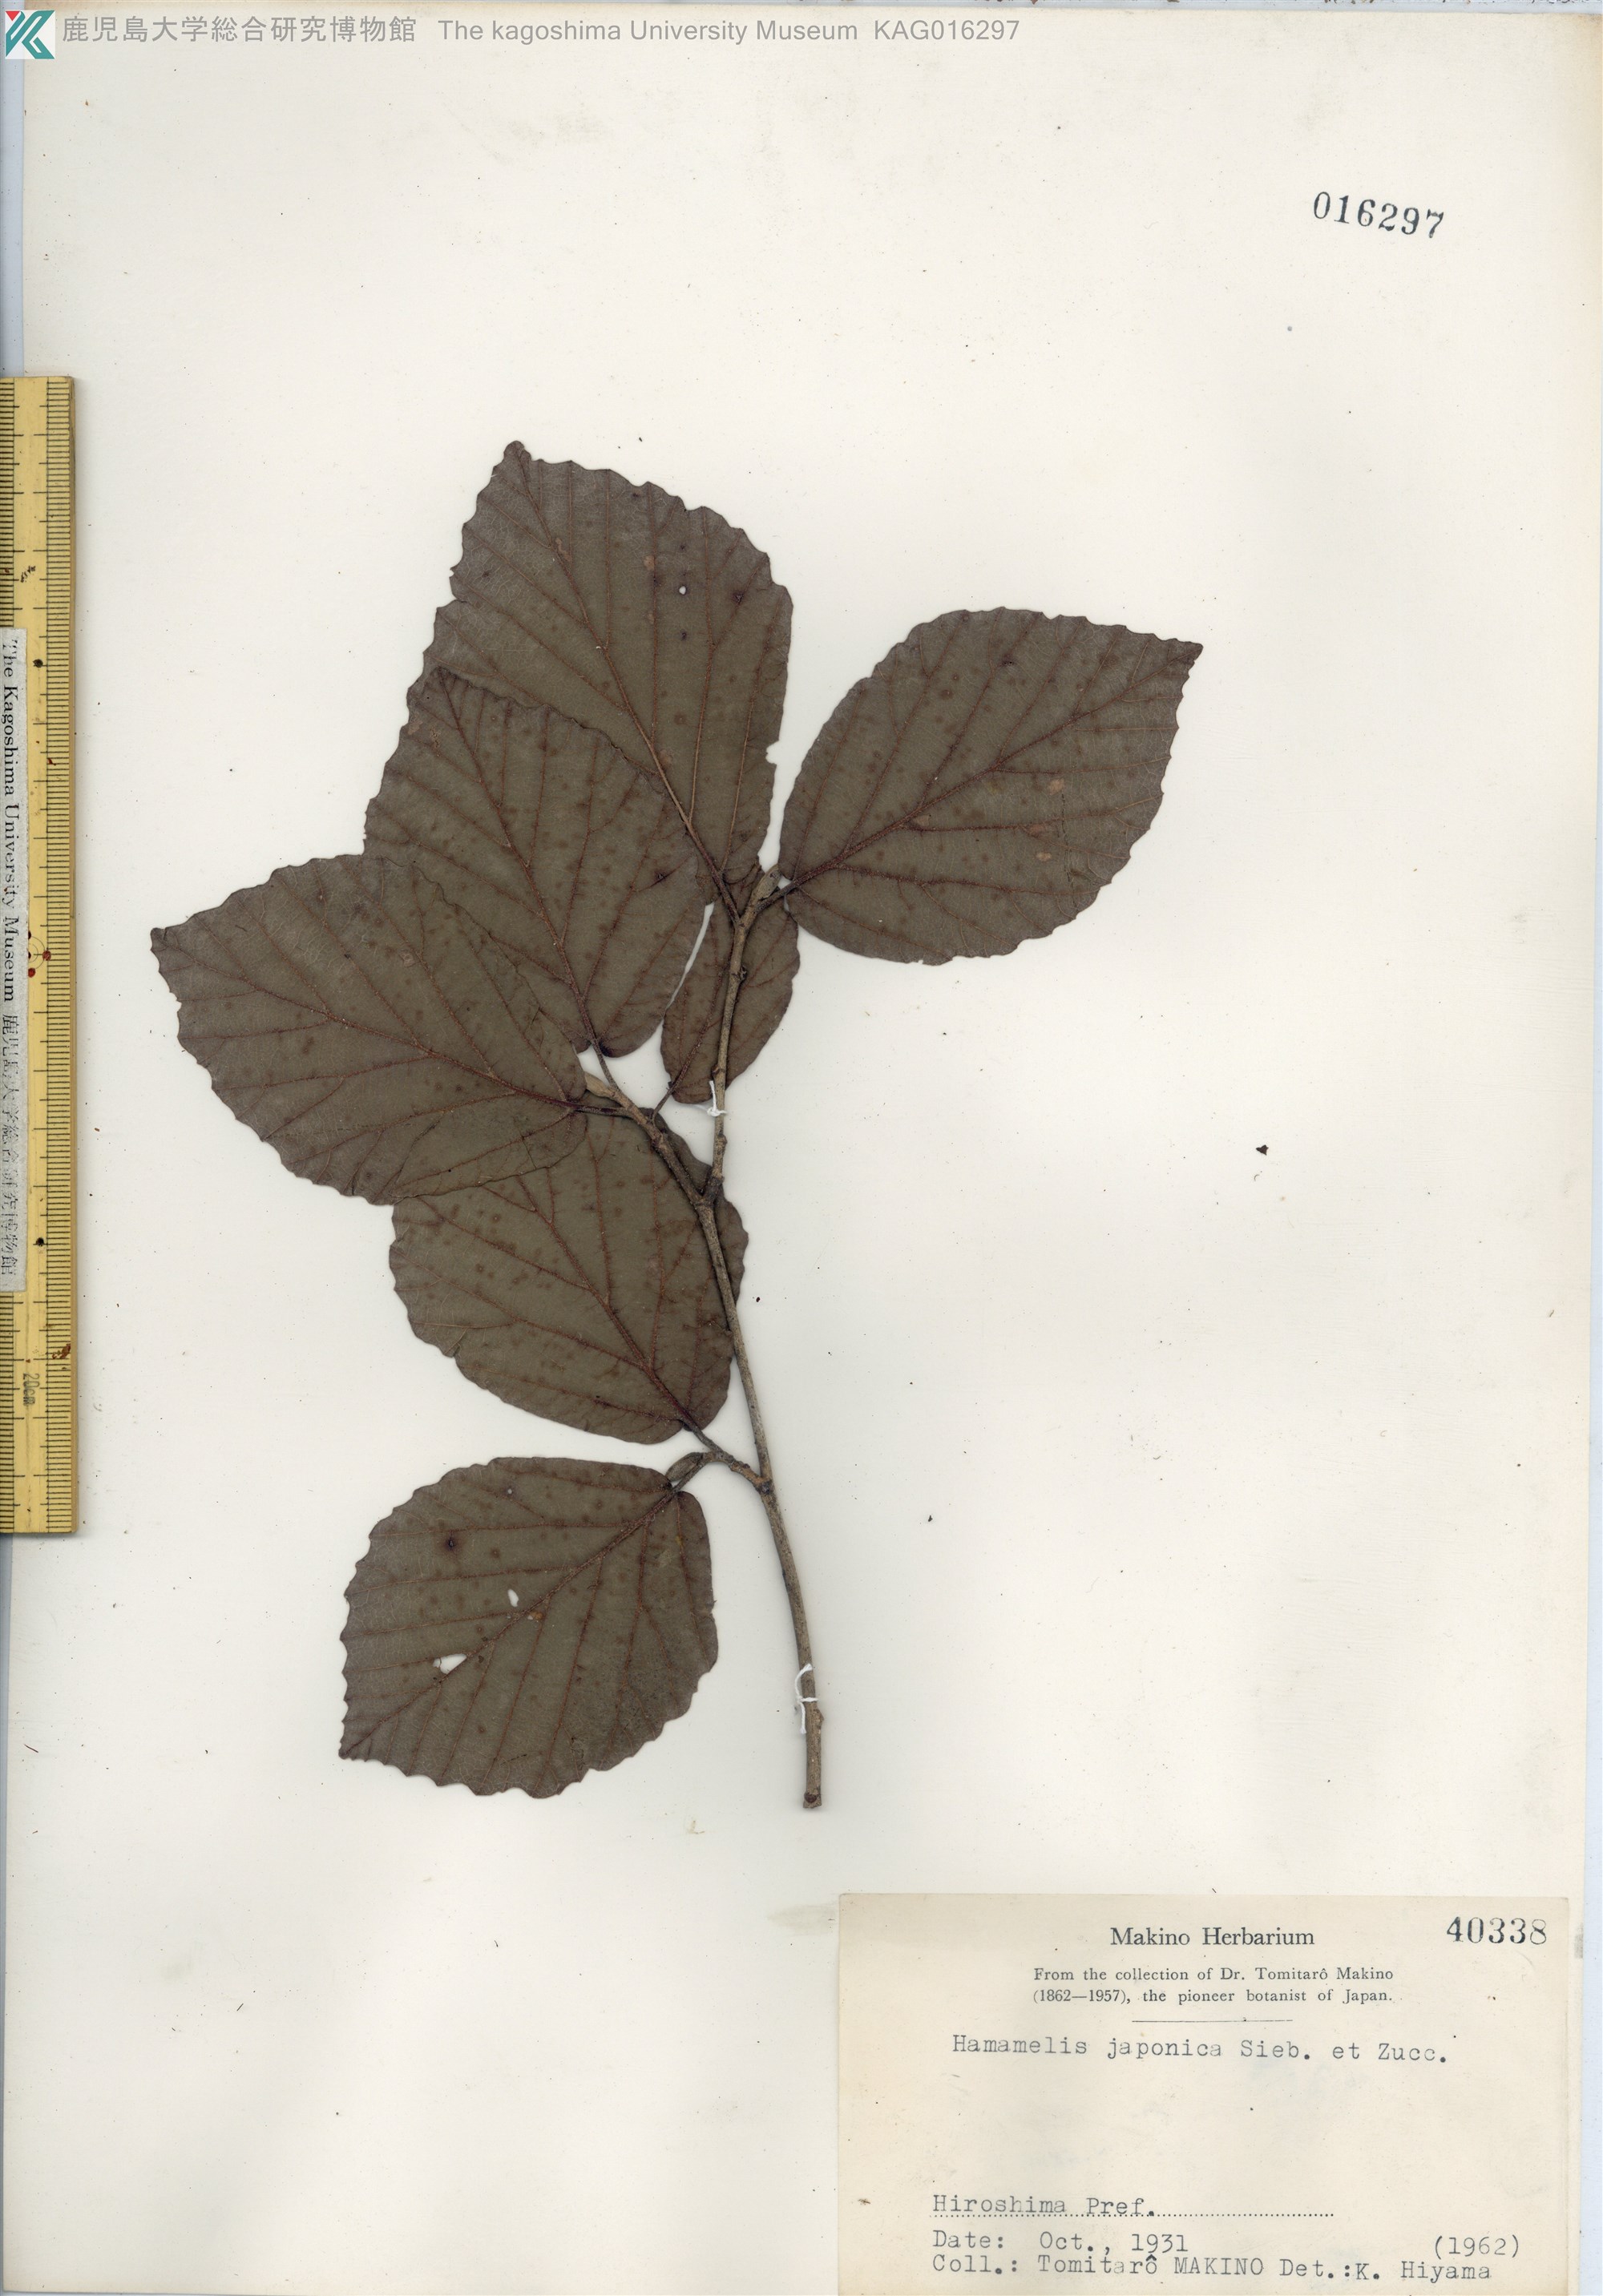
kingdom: Plantae
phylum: Tracheophyta
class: Magnoliopsida
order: Saxifragales
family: Hamamelidaceae
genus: Hamamelis
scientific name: Hamamelis japonica
